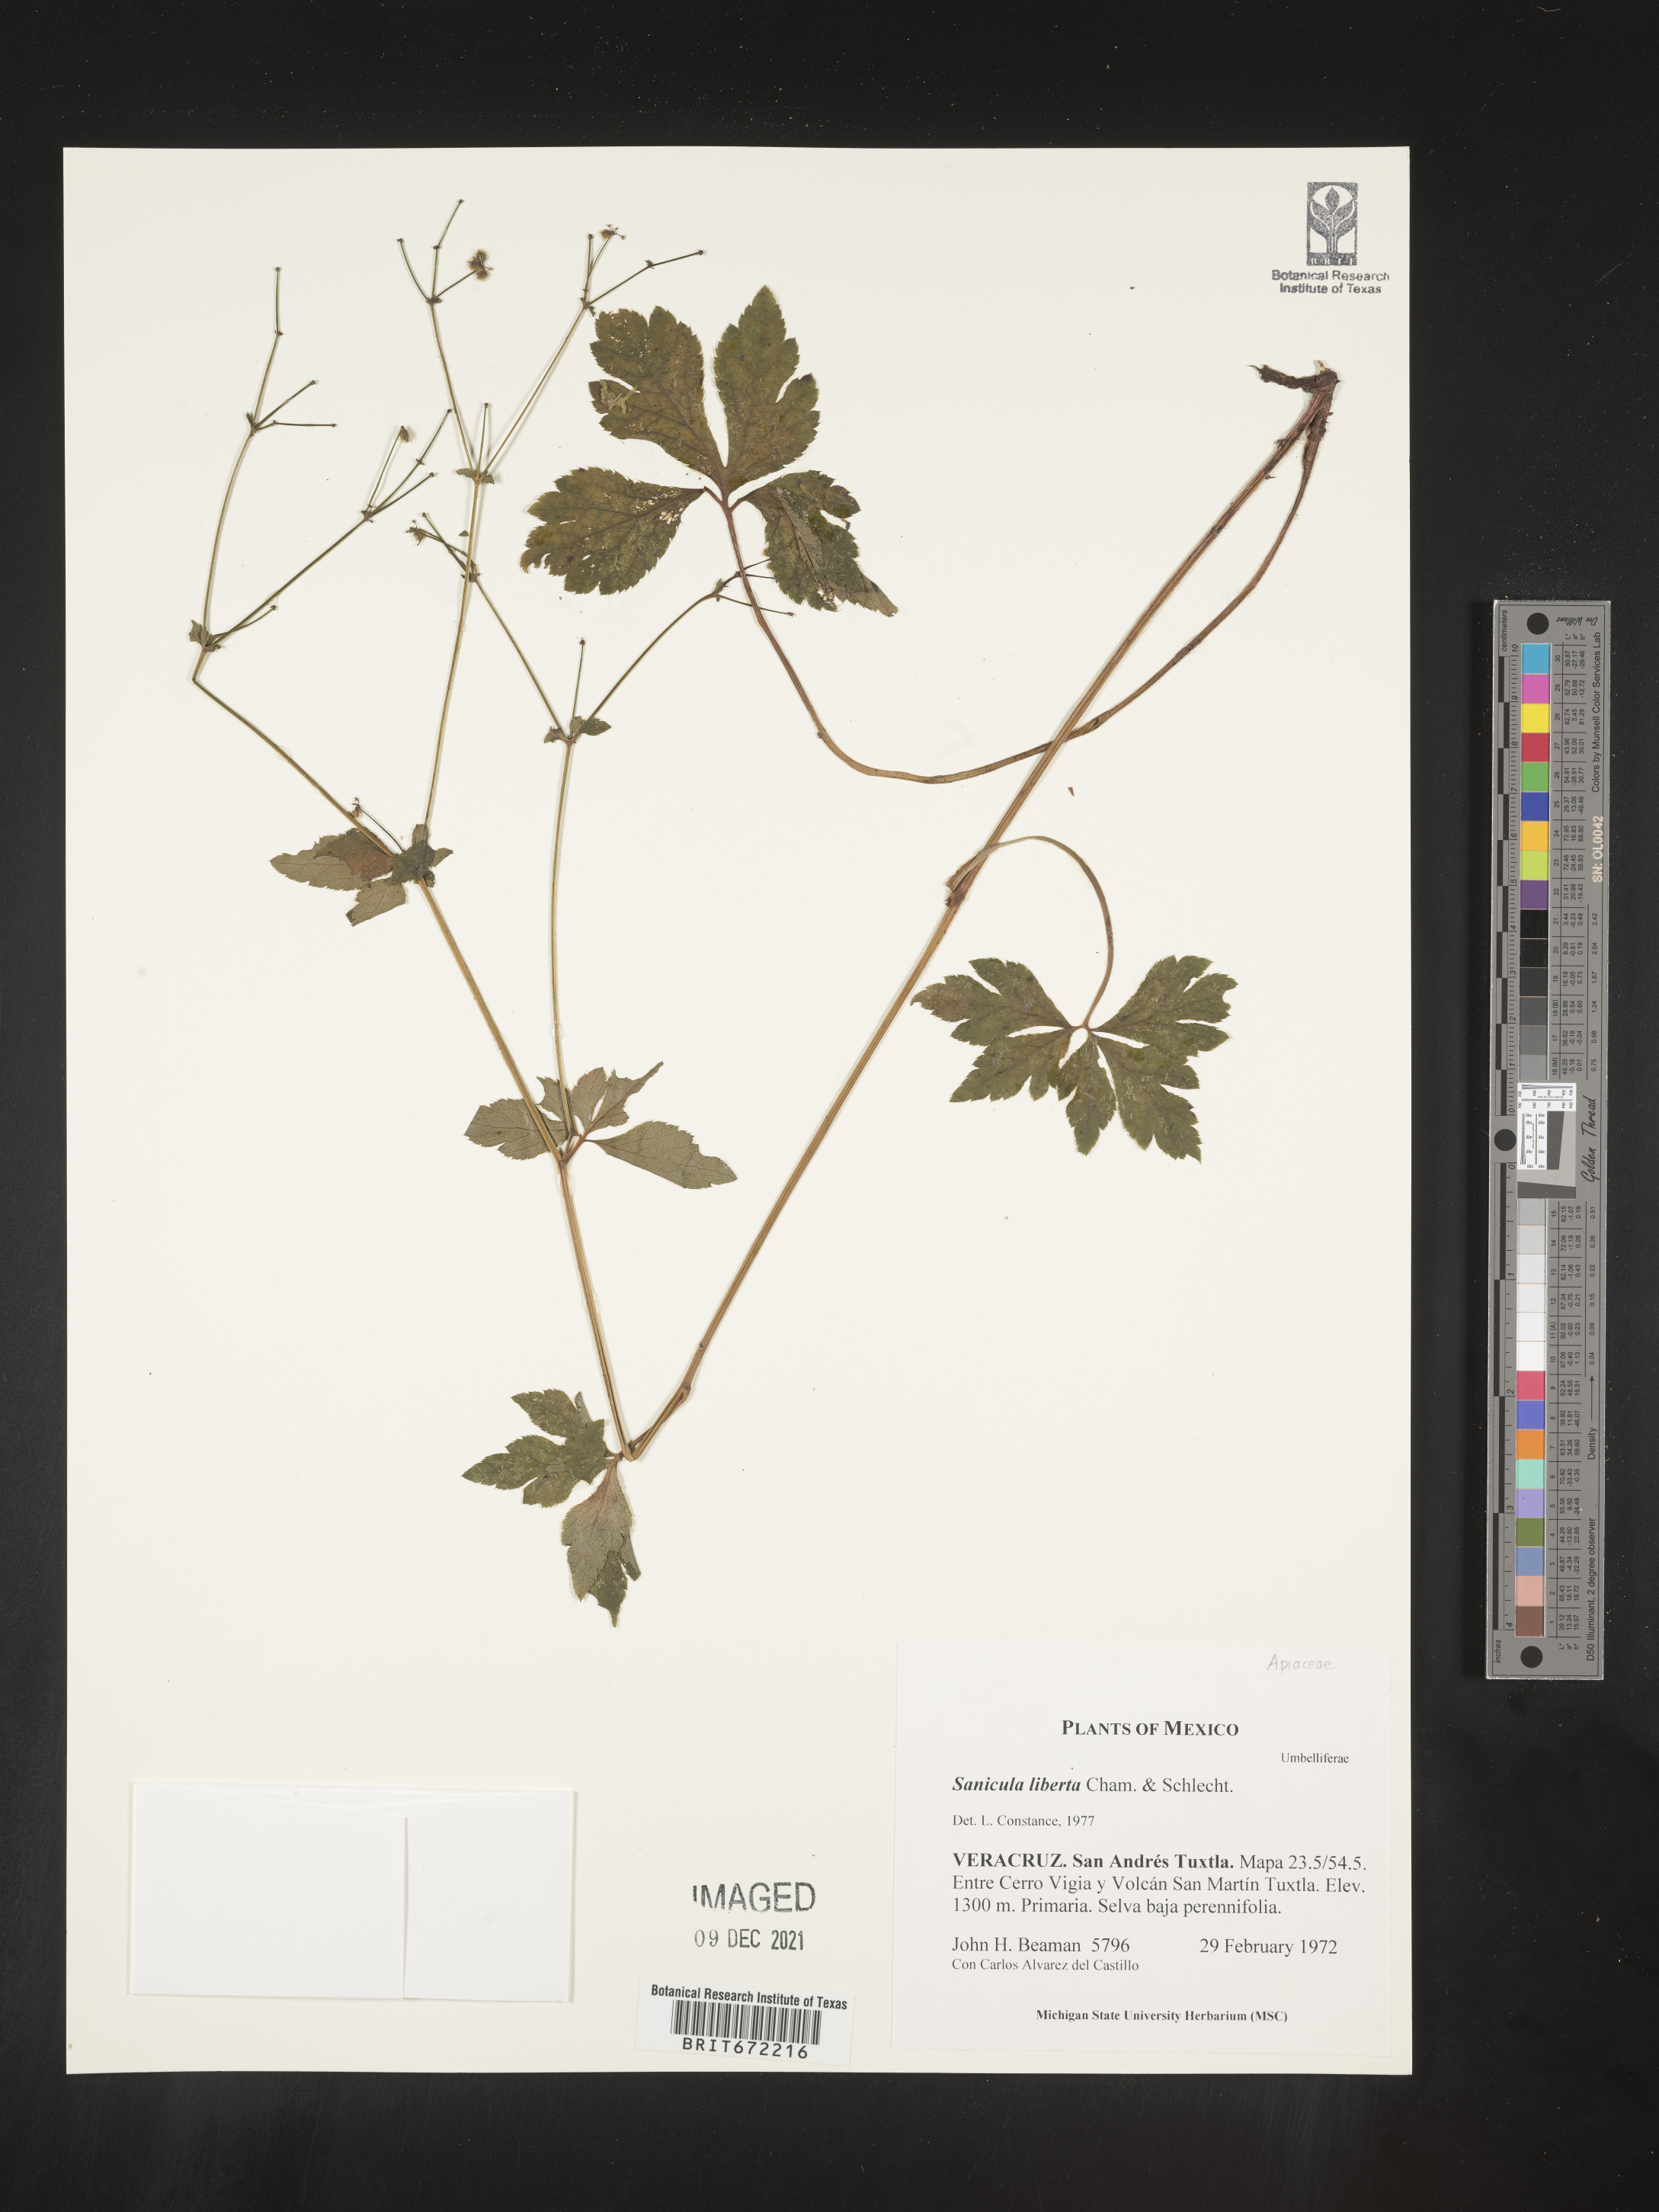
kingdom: Plantae
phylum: Tracheophyta
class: Magnoliopsida
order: Apiales
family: Apiaceae
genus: Sanicula
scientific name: Sanicula
